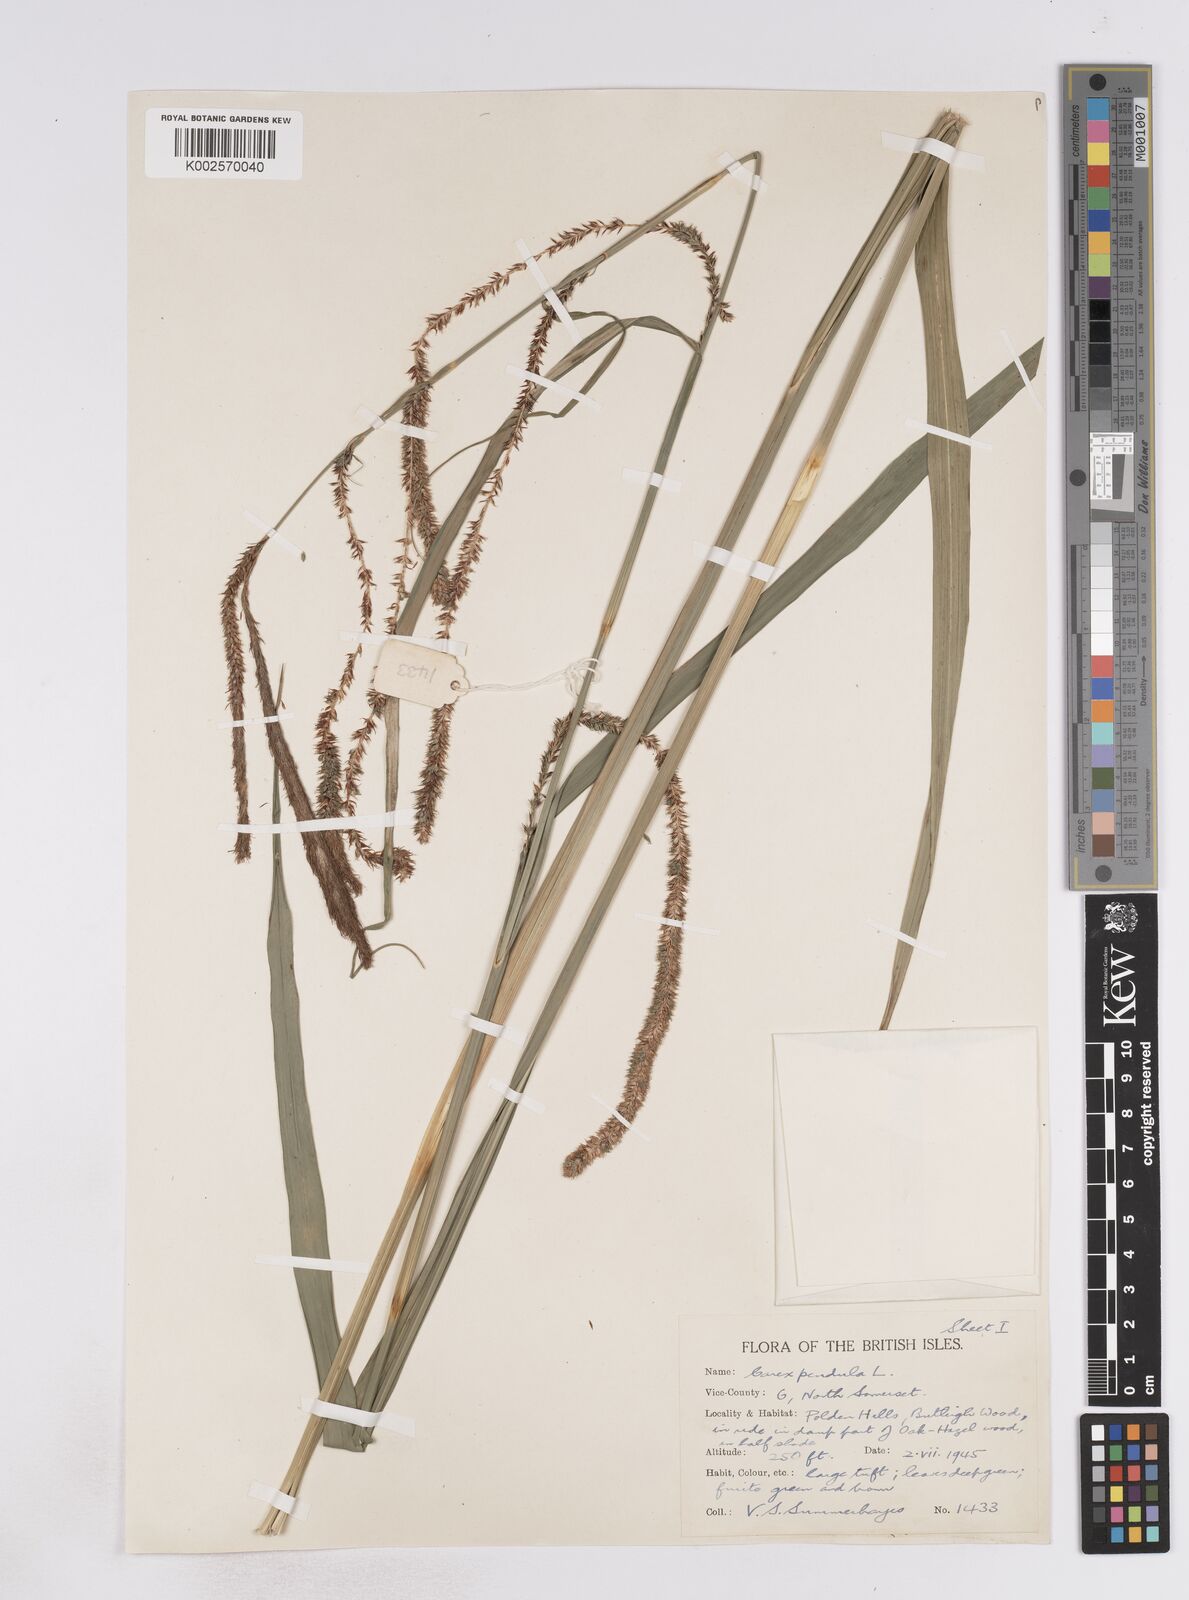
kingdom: Plantae
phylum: Tracheophyta
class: Liliopsida
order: Poales
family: Cyperaceae
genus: Carex
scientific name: Carex pendula
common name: Pendulous sedge
